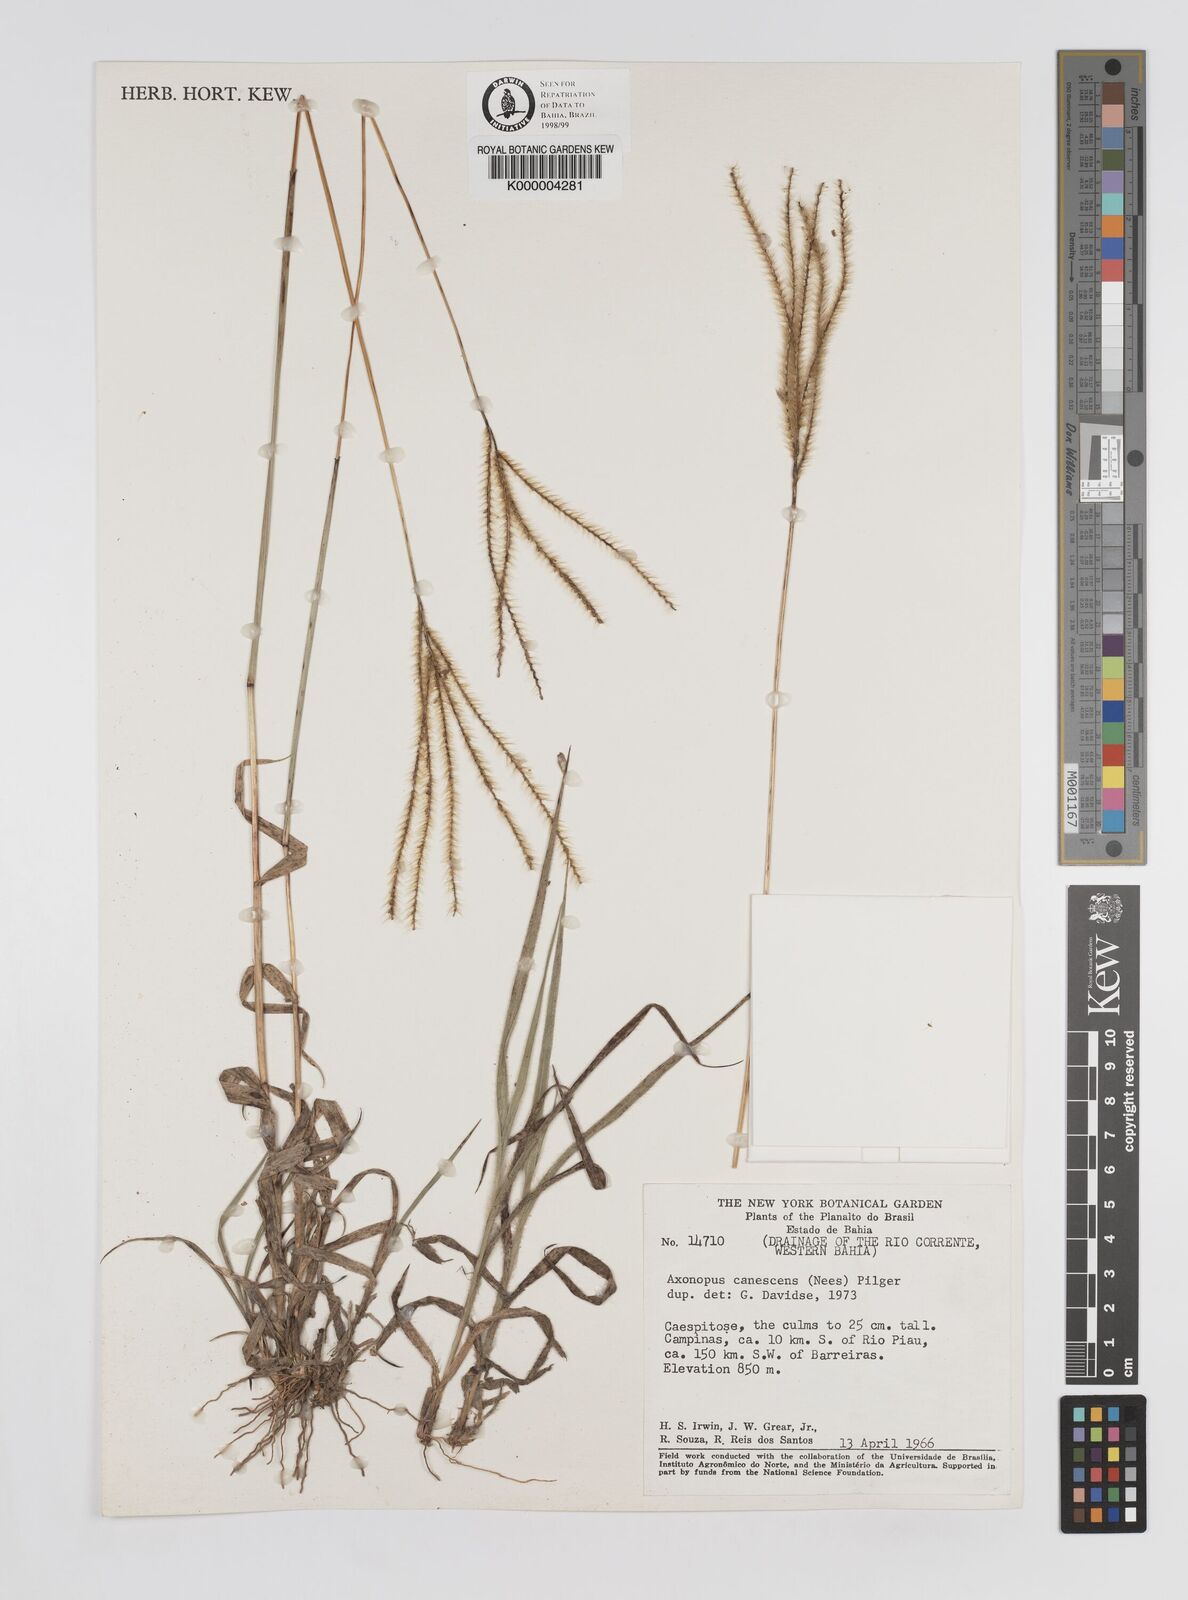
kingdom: Plantae
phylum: Tracheophyta
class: Liliopsida
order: Poales
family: Poaceae
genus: Axonopus
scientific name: Axonopus aureus
